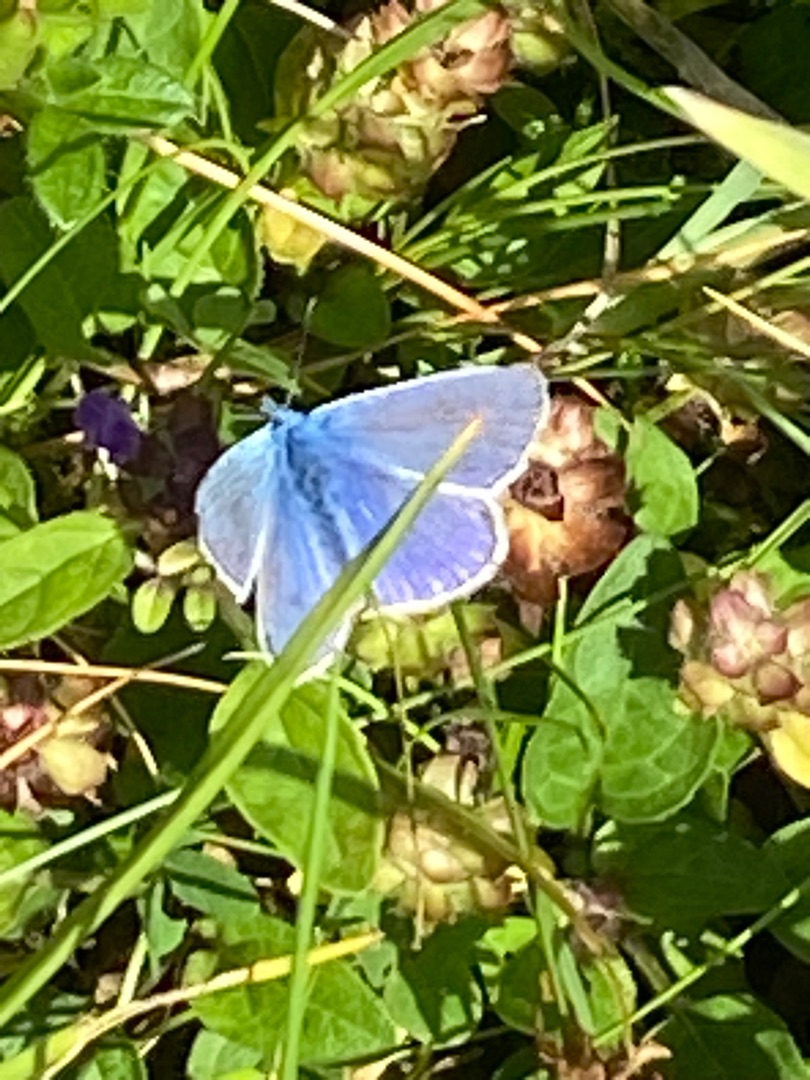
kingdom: Animalia
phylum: Arthropoda
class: Insecta
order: Lepidoptera
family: Lycaenidae
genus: Polyommatus
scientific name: Polyommatus icarus
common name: Almindelig blåfugl
